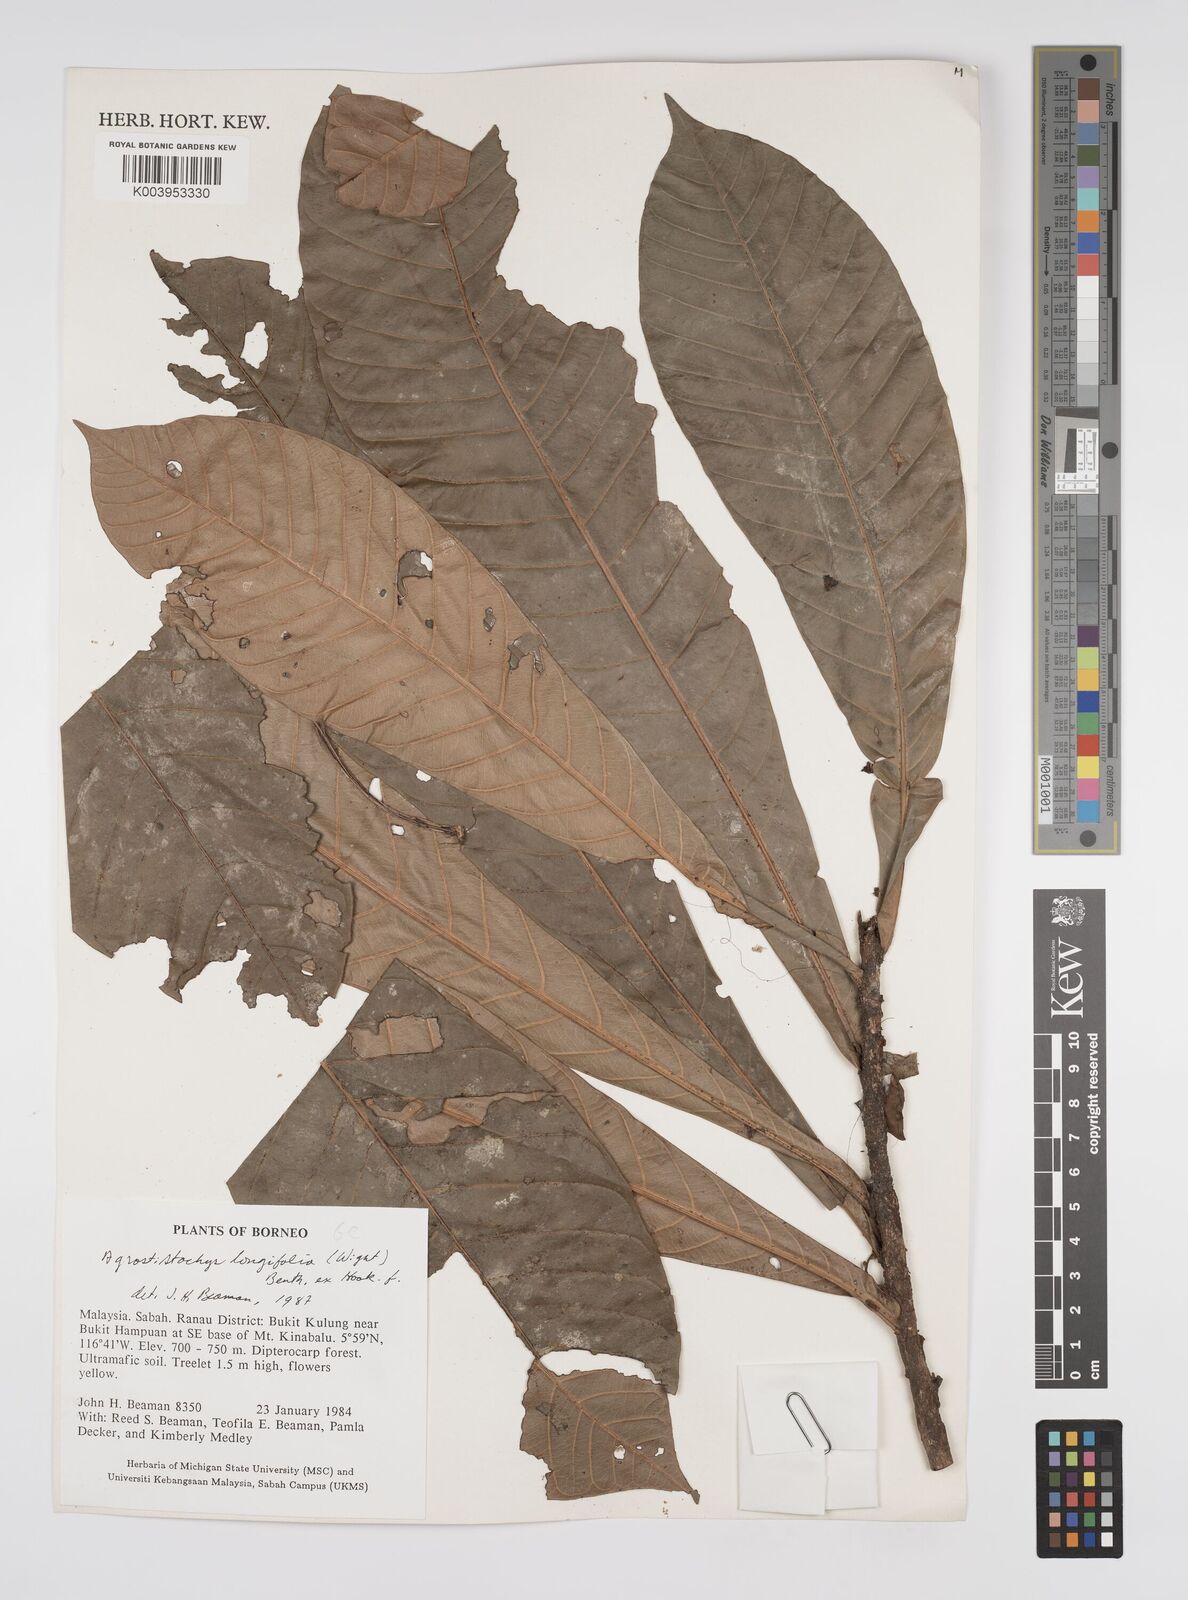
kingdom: Plantae
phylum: Tracheophyta
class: Magnoliopsida
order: Malpighiales
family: Euphorbiaceae
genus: Agrostistachys
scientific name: Agrostistachys borneensis
